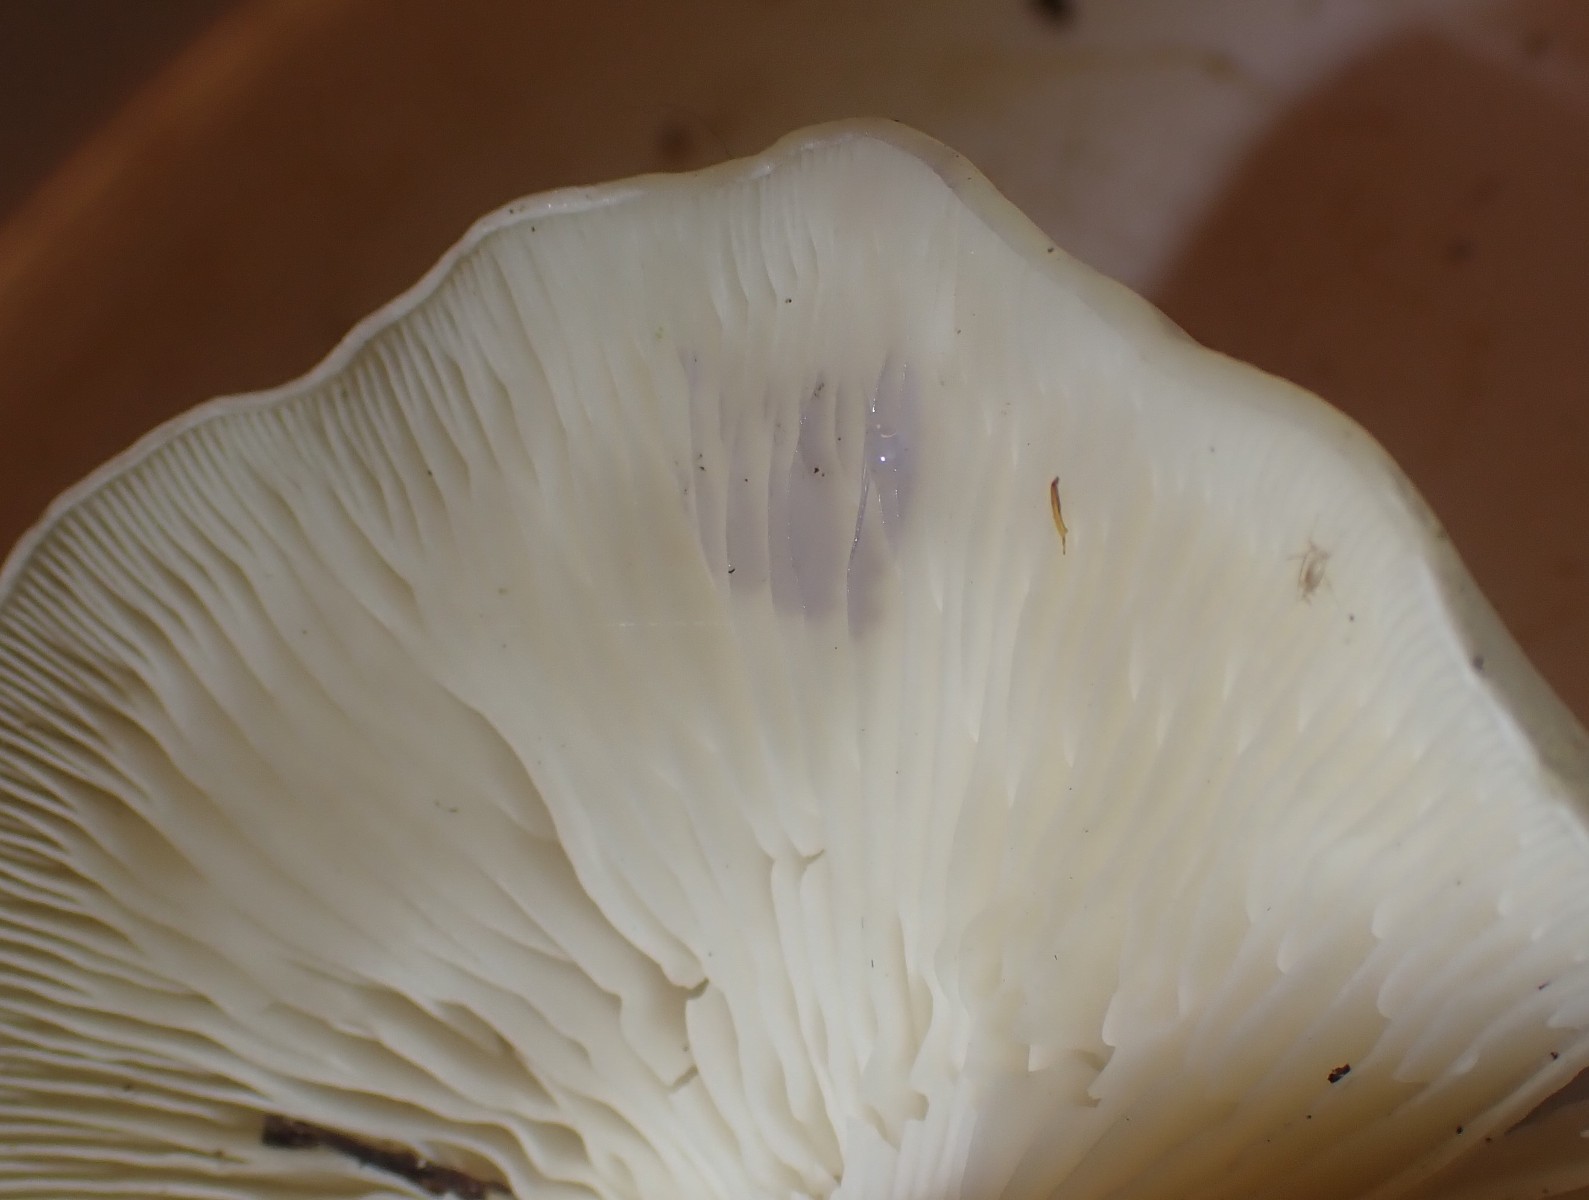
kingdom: Fungi
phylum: Basidiomycota
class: Agaricomycetes
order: Agaricales
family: Tricholomataceae
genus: Leucocybe
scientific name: Leucocybe connata
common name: knippe-tragthat
